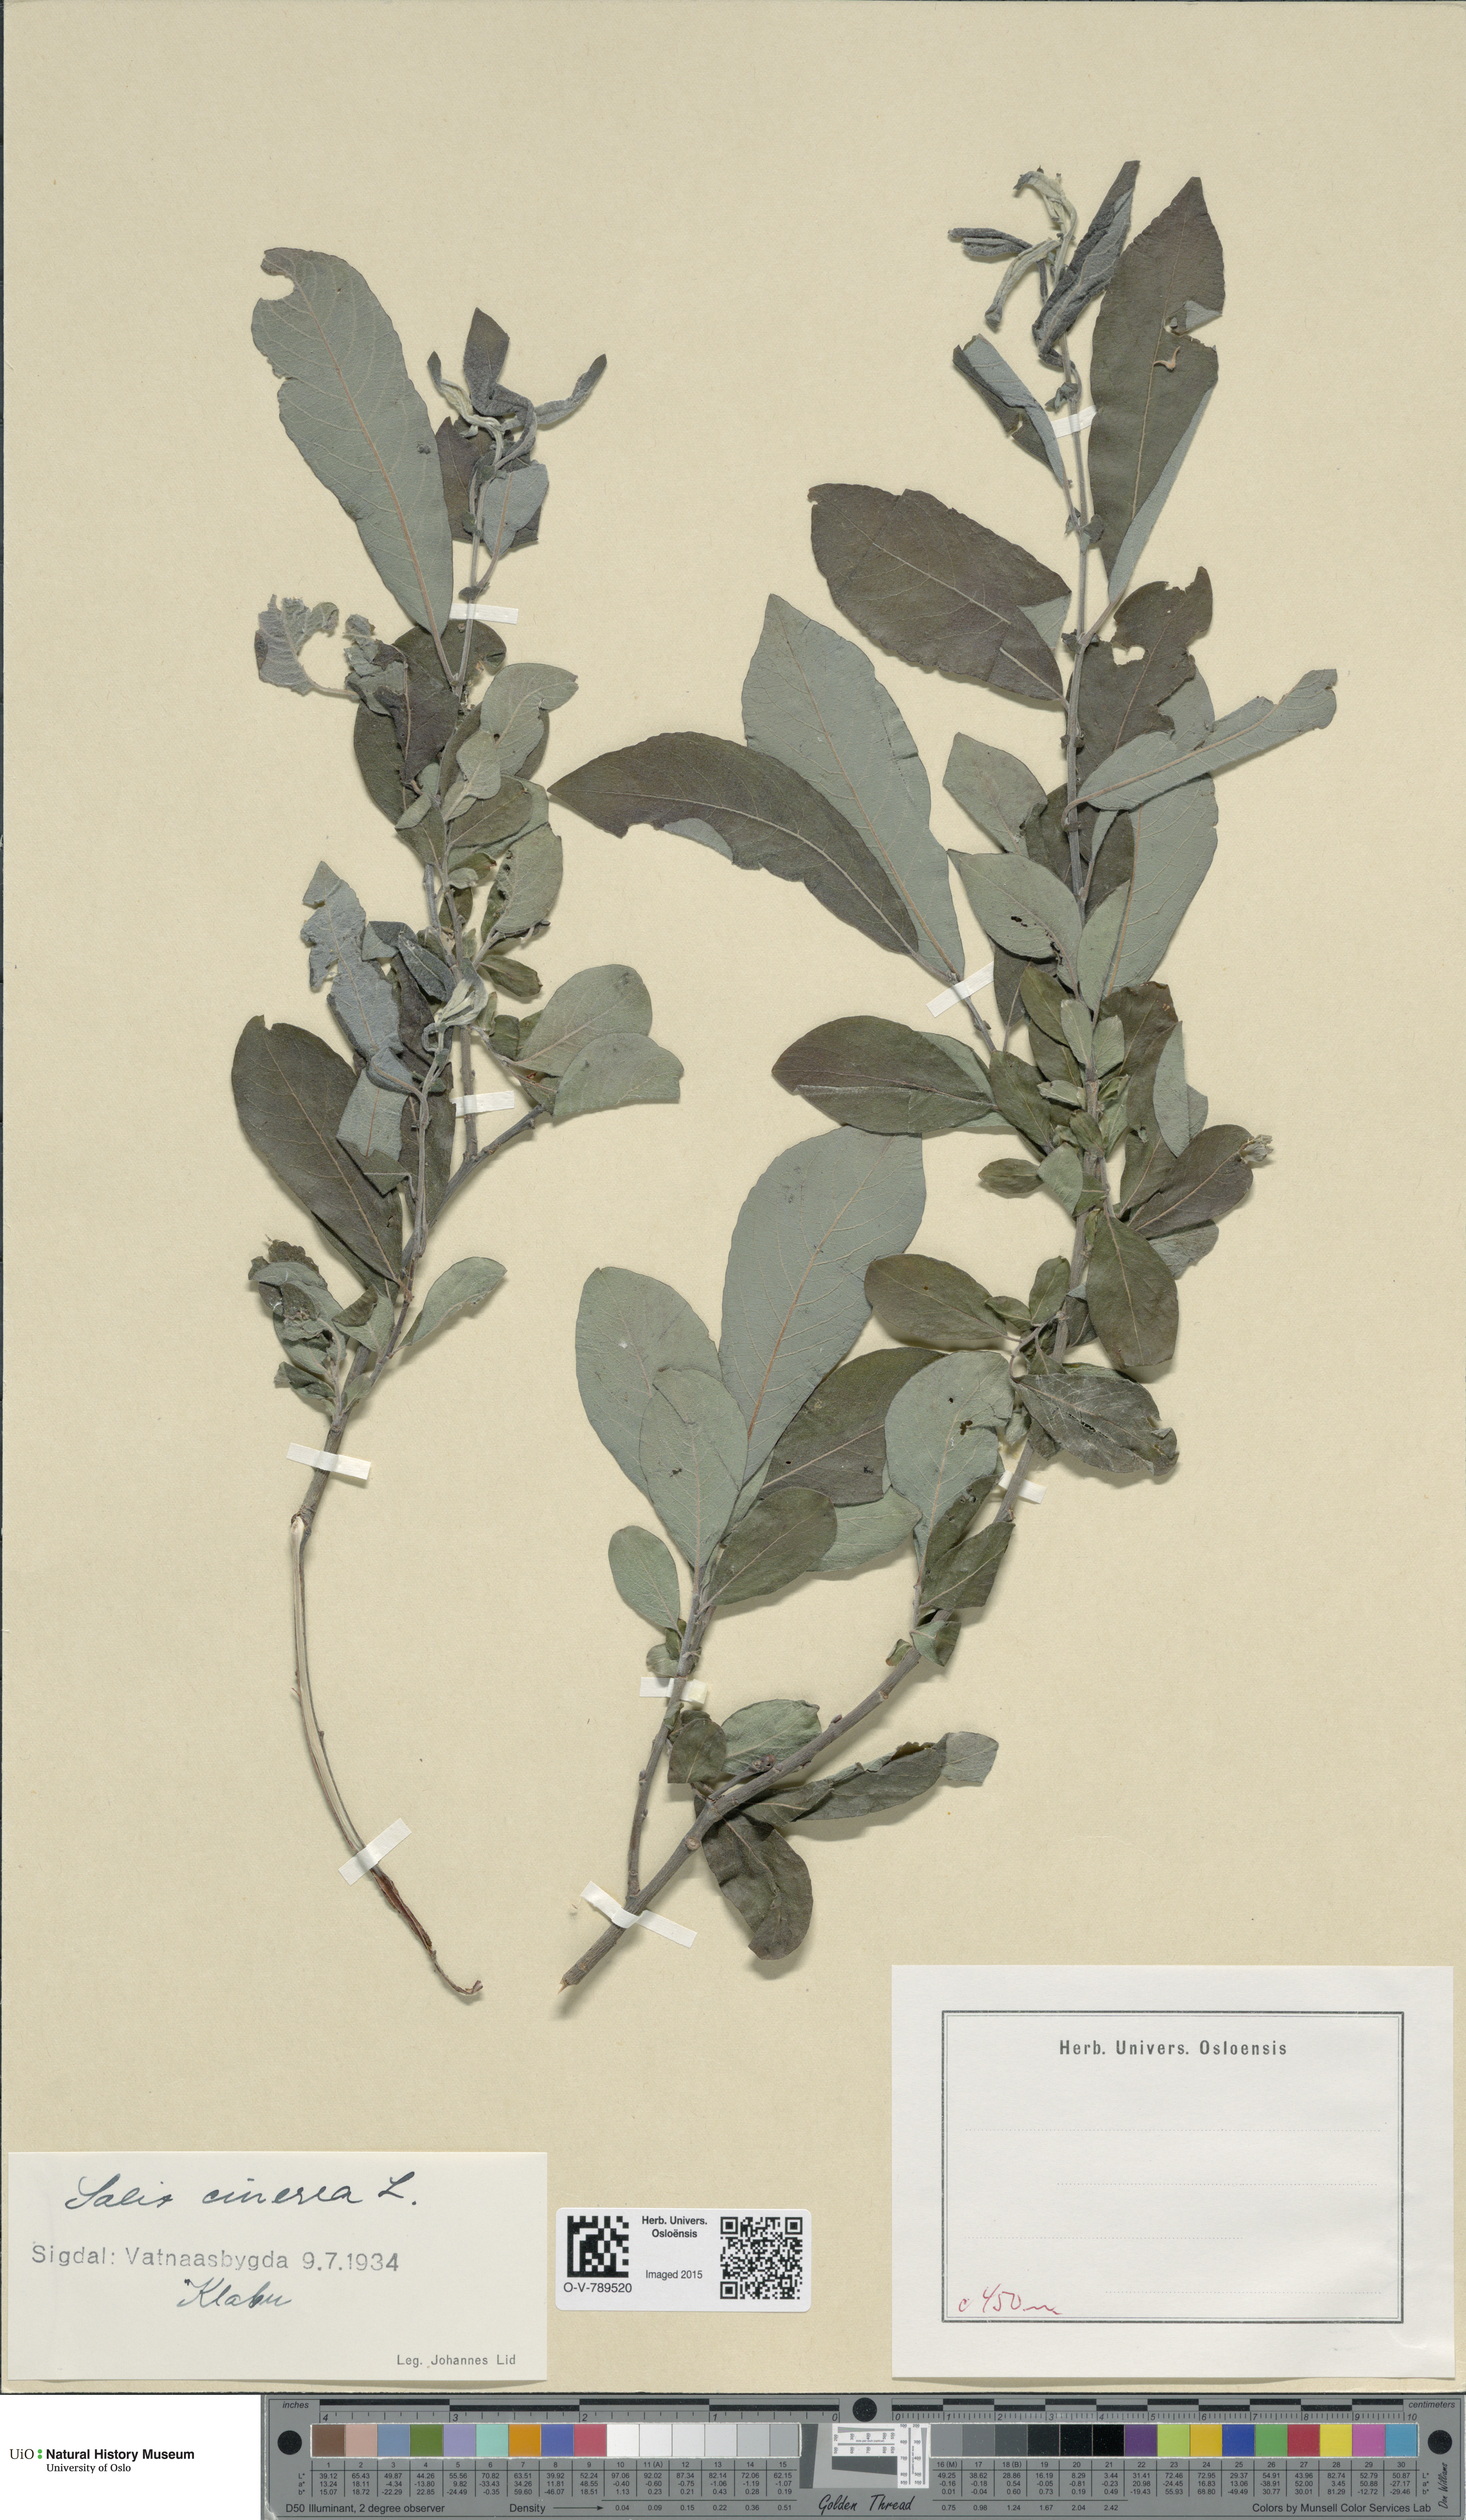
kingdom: Plantae
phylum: Tracheophyta
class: Magnoliopsida
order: Malpighiales
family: Salicaceae
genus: Salix
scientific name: Salix cinerea
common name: Common sallow
